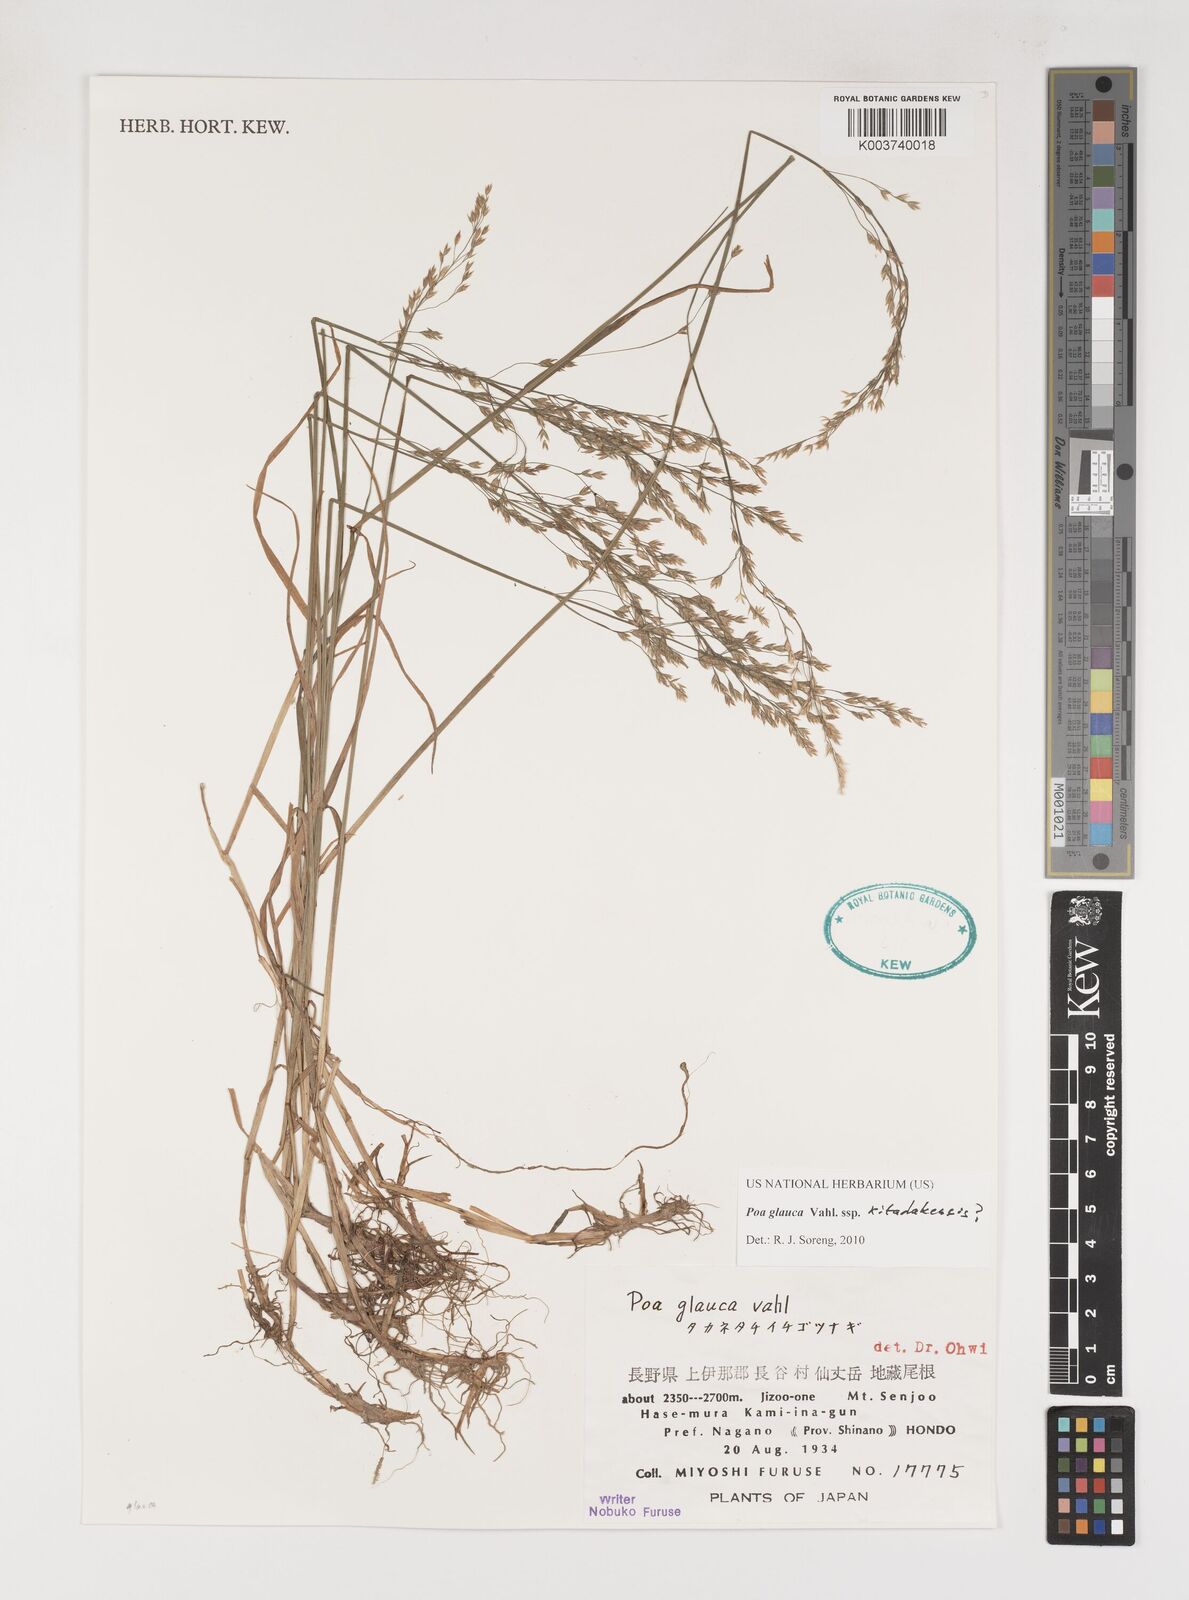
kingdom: Plantae
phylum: Tracheophyta
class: Liliopsida
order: Poales
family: Poaceae
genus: Poa
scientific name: Poa glauca
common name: Glaucous bluegrass
